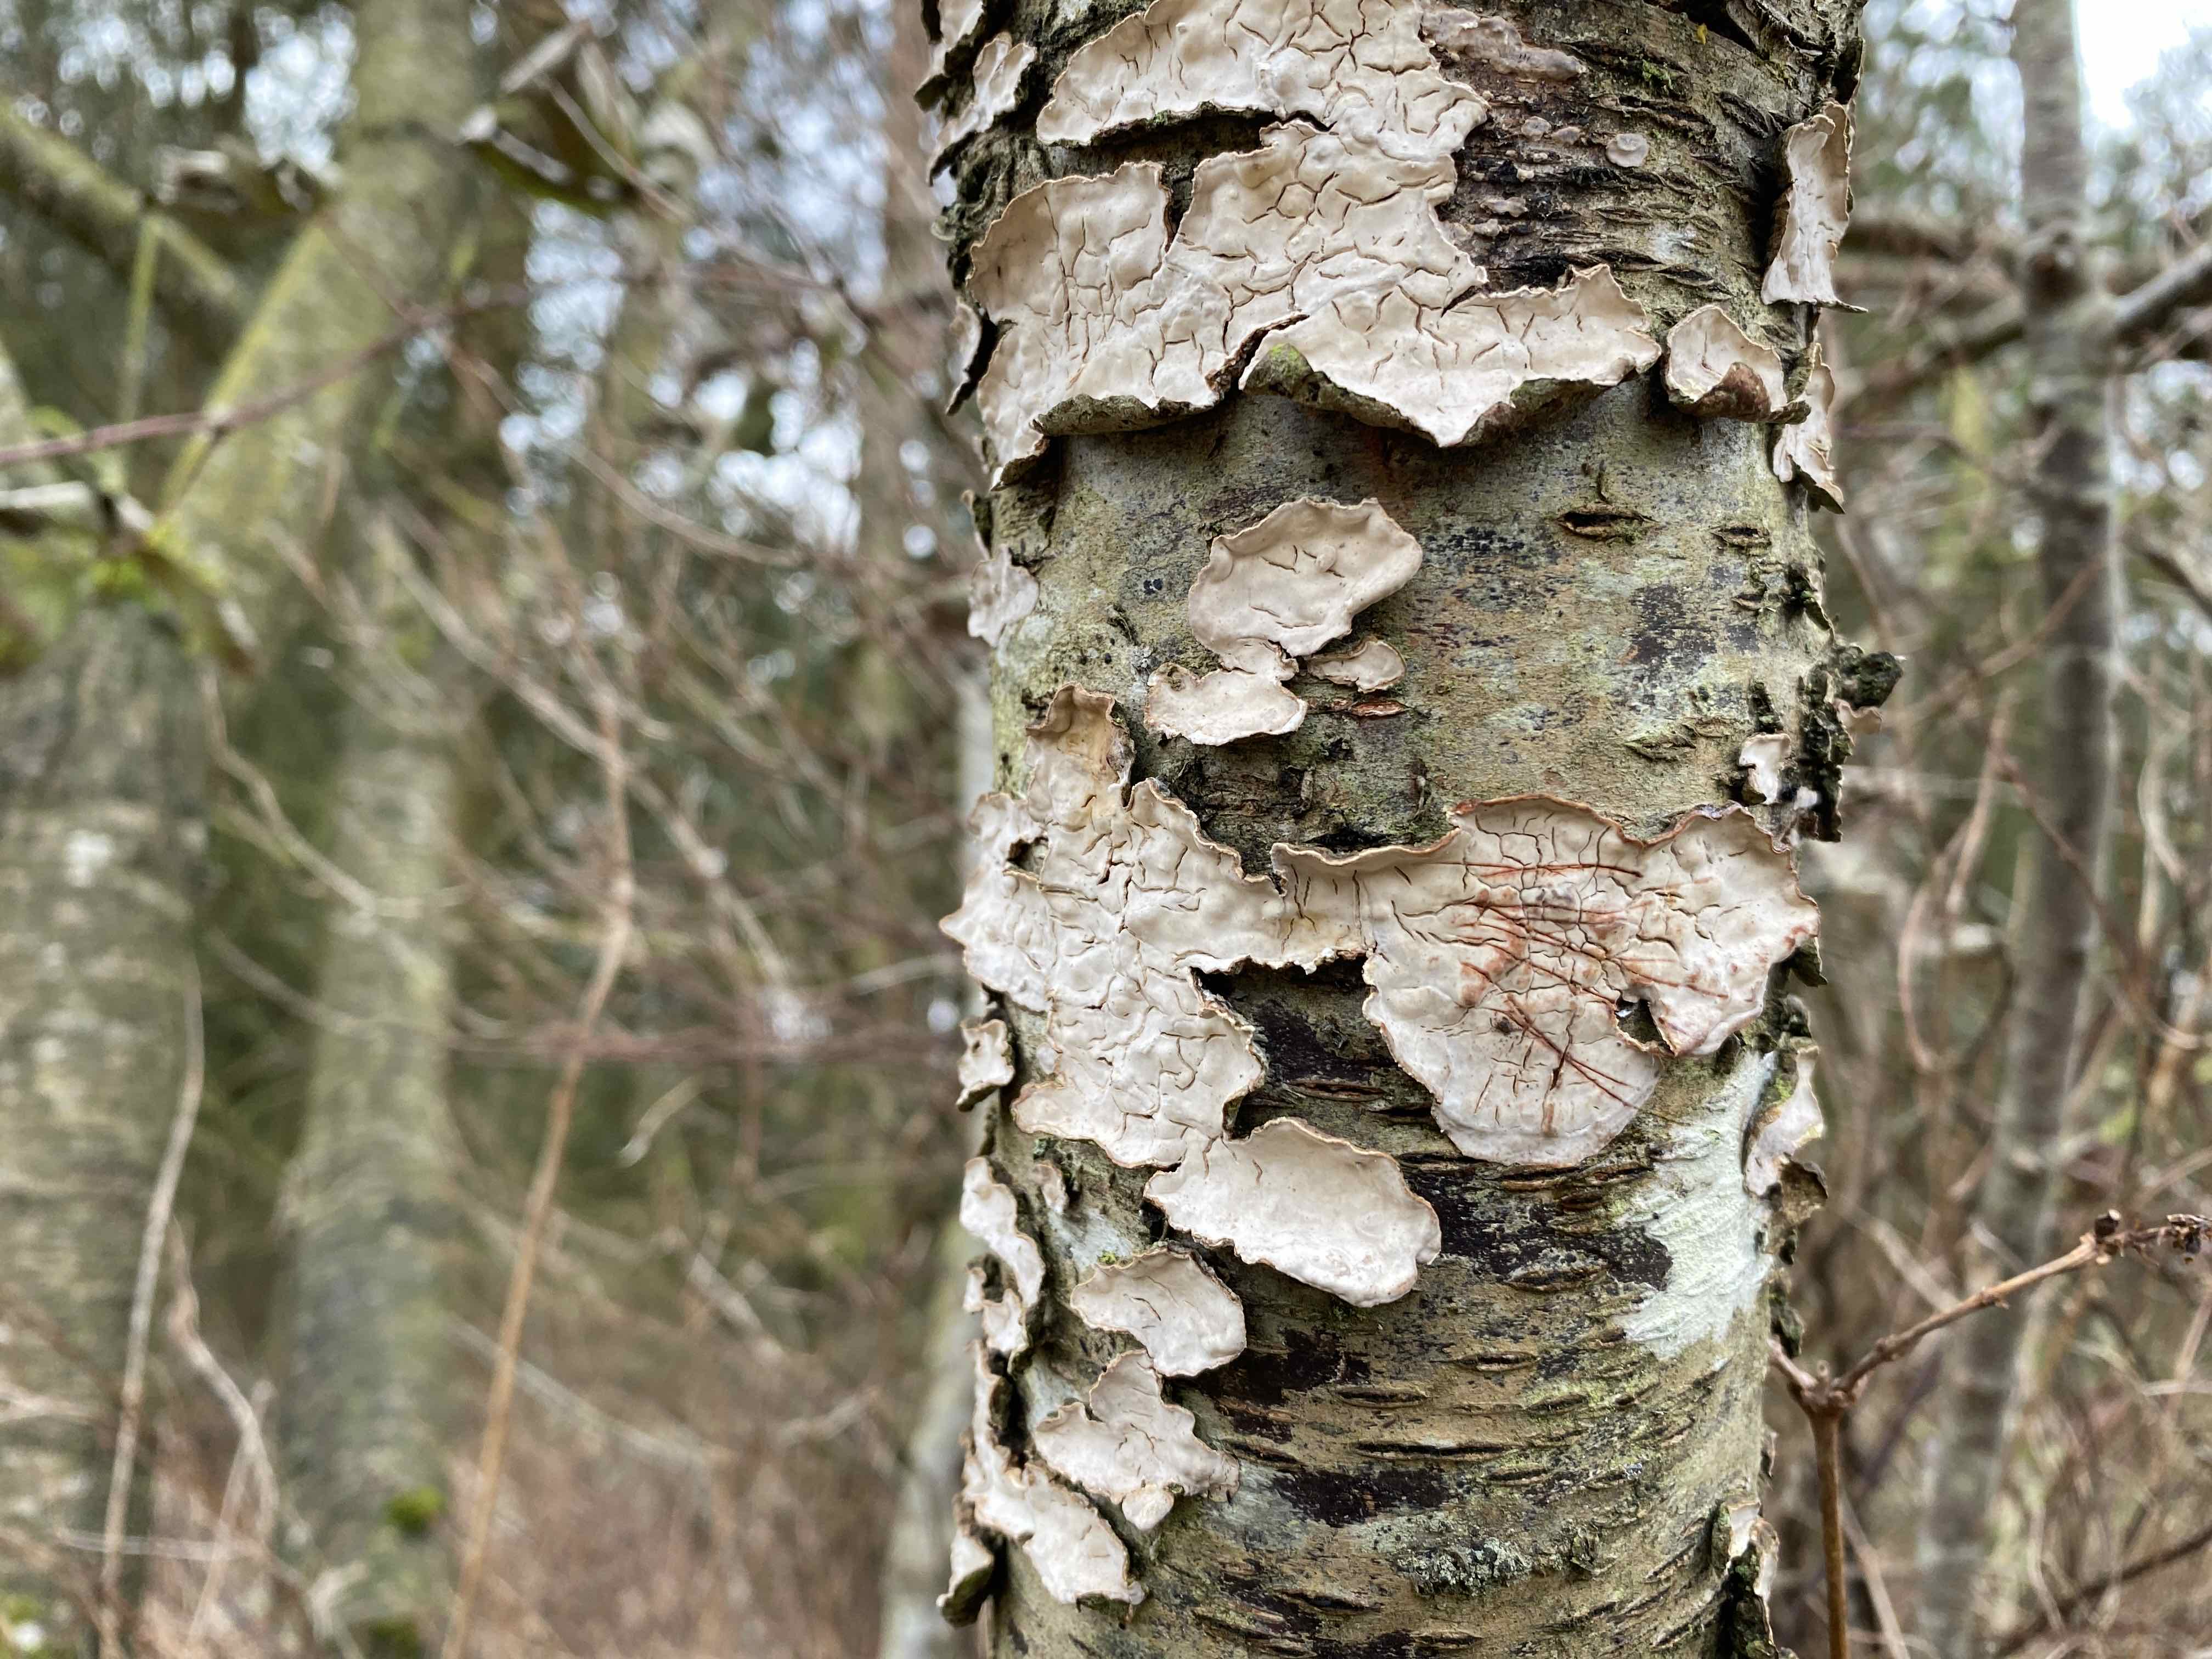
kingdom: Fungi
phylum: Basidiomycota
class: Agaricomycetes
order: Russulales
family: Stereaceae
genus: Stereum
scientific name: Stereum rugosum
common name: rynket lædersvamp
